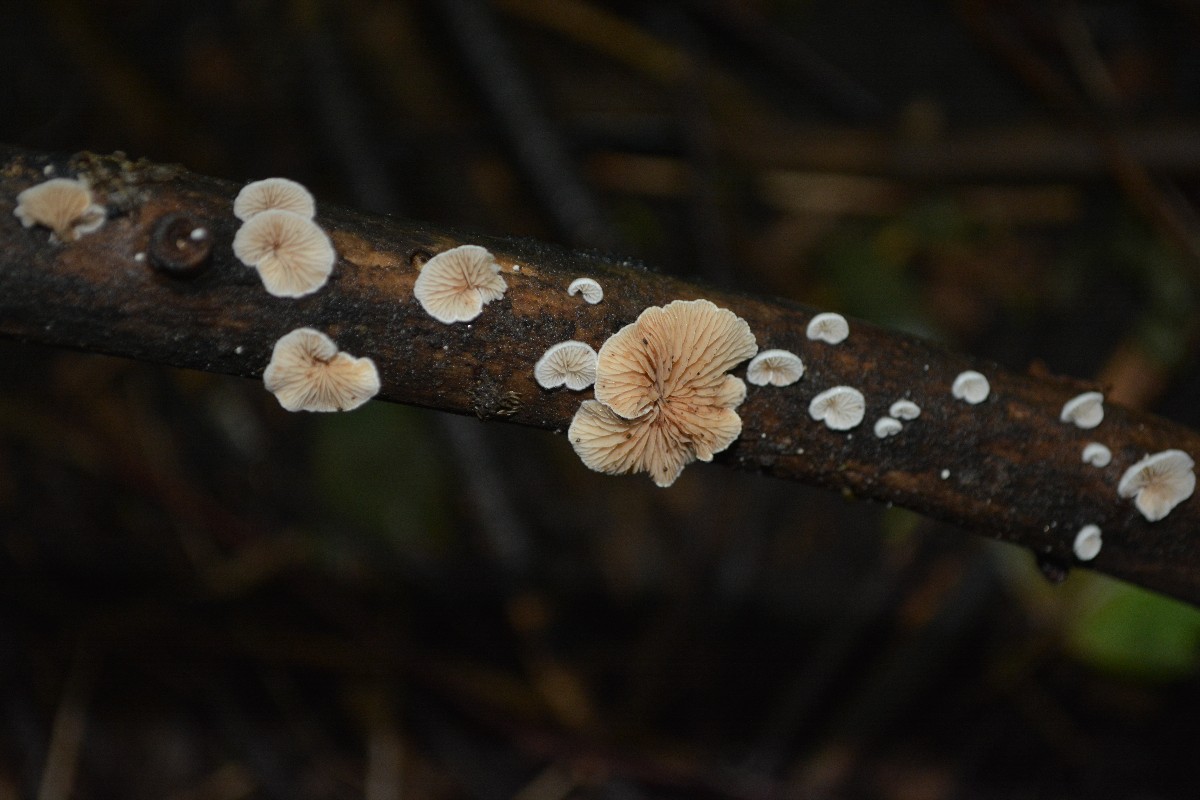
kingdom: Fungi
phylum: Basidiomycota
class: Agaricomycetes
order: Agaricales
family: Crepidotaceae
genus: Crepidotus
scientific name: Crepidotus
